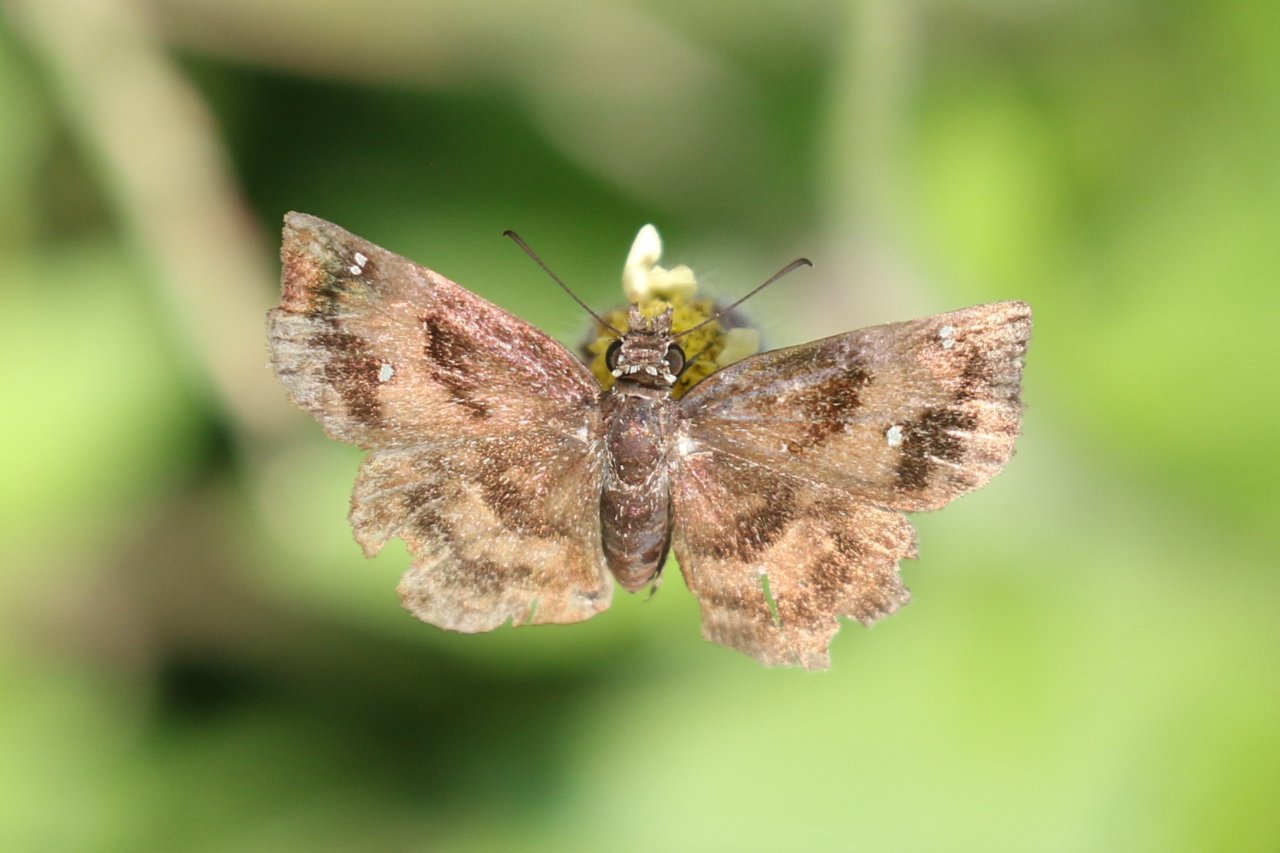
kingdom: Animalia
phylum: Arthropoda
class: Insecta
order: Lepidoptera
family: Hesperiidae
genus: Staphylus
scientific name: Staphylus mazans
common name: Mazans Scallopwing
